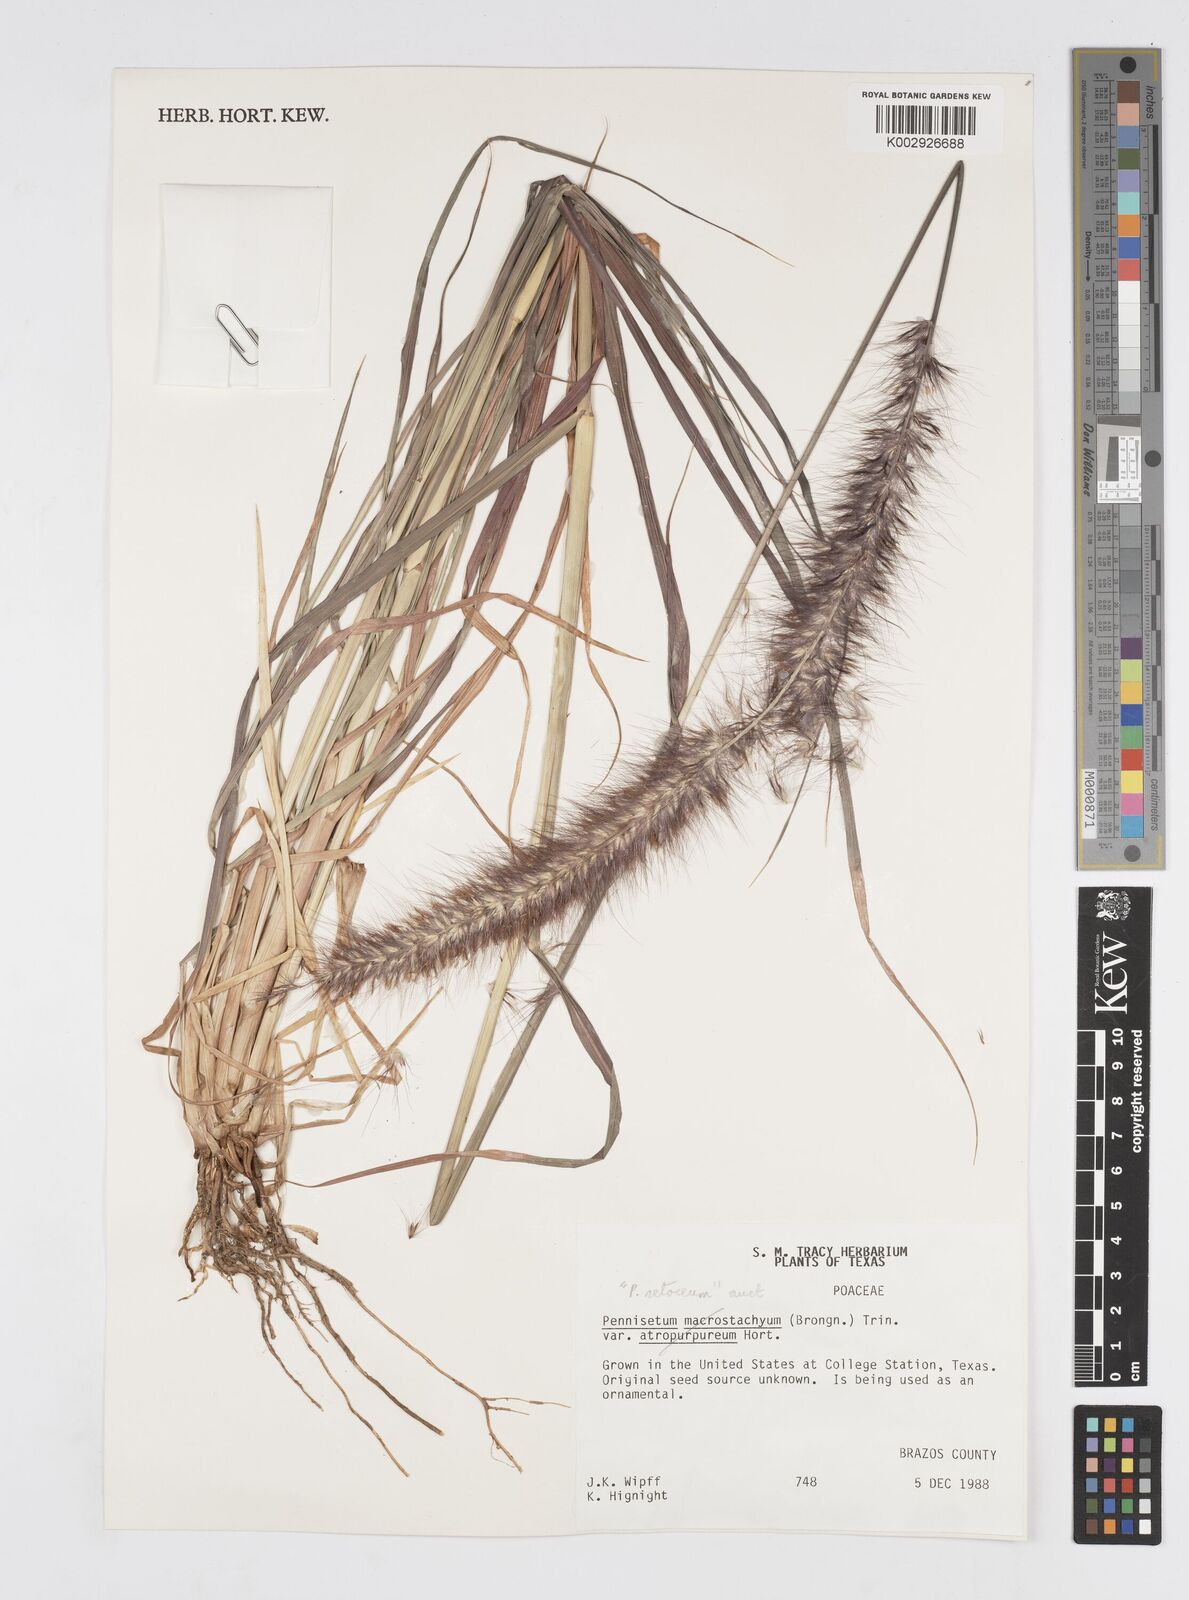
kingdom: Plantae
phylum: Tracheophyta
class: Liliopsida
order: Poales
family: Poaceae
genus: Cenchrus
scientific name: Cenchrus setaceus
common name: Crimson fountaingrass
